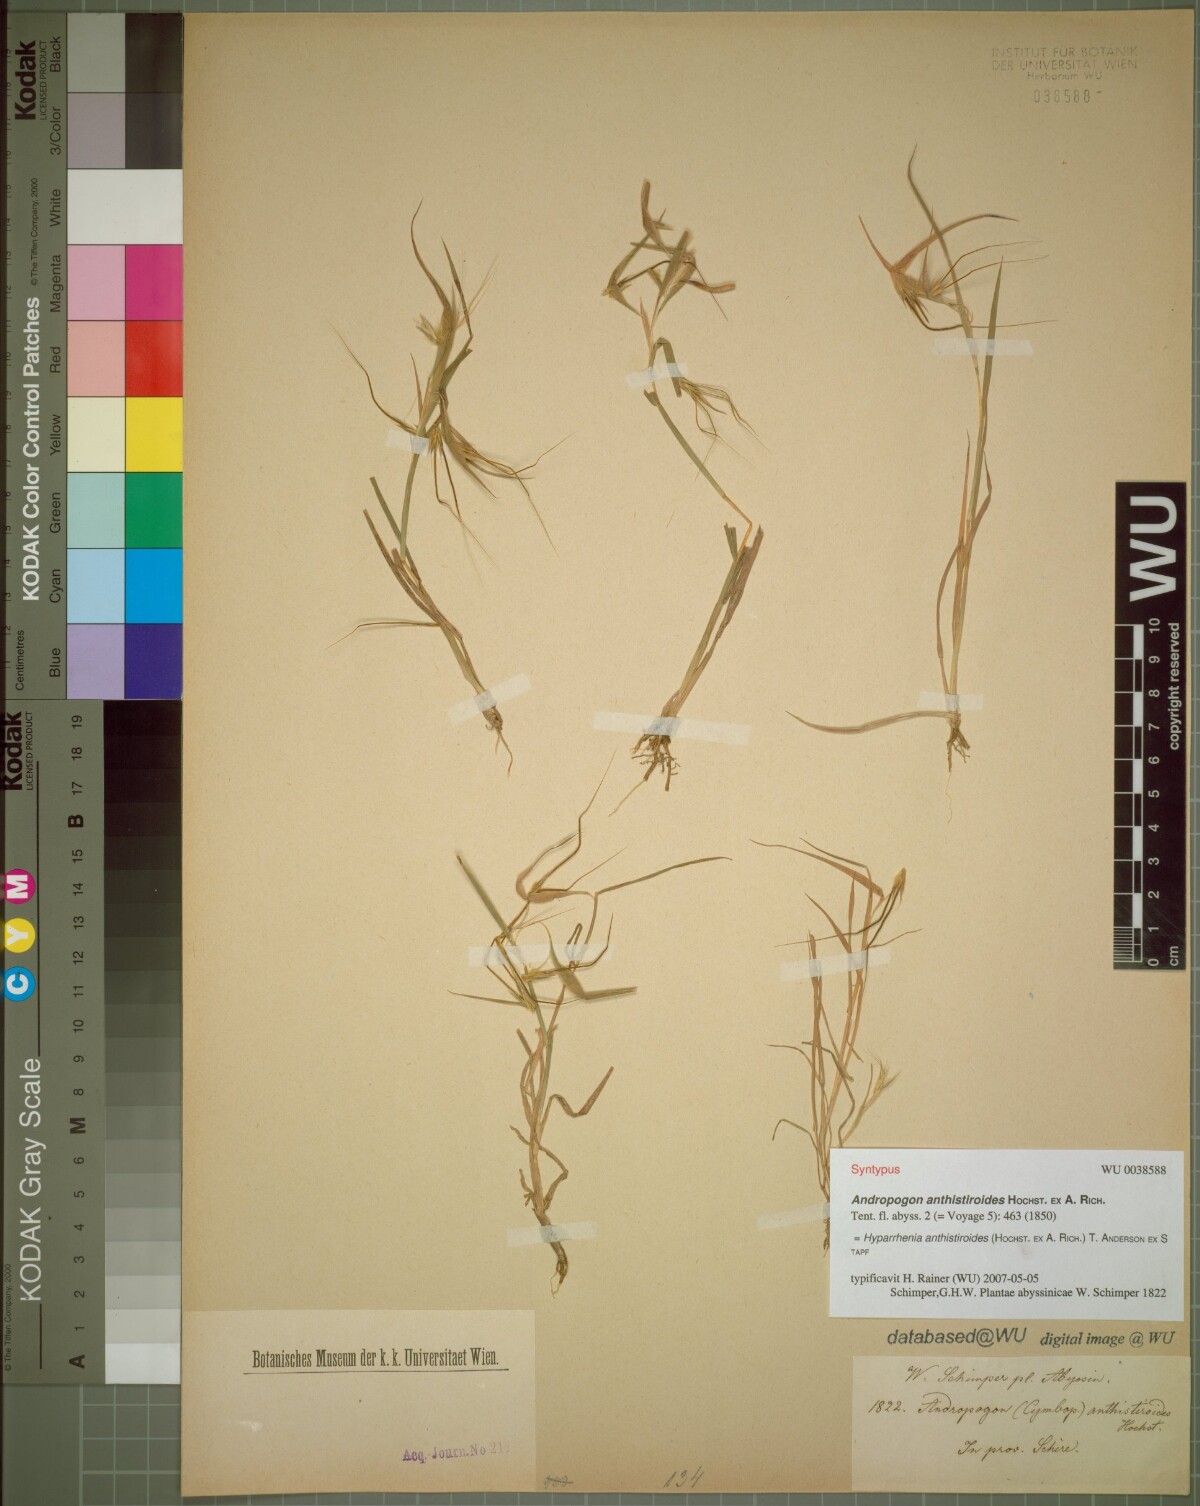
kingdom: Plantae
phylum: Tracheophyta
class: Liliopsida
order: Poales
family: Poaceae
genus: Hyparrhenia
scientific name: Hyparrhenia anthistirioides
